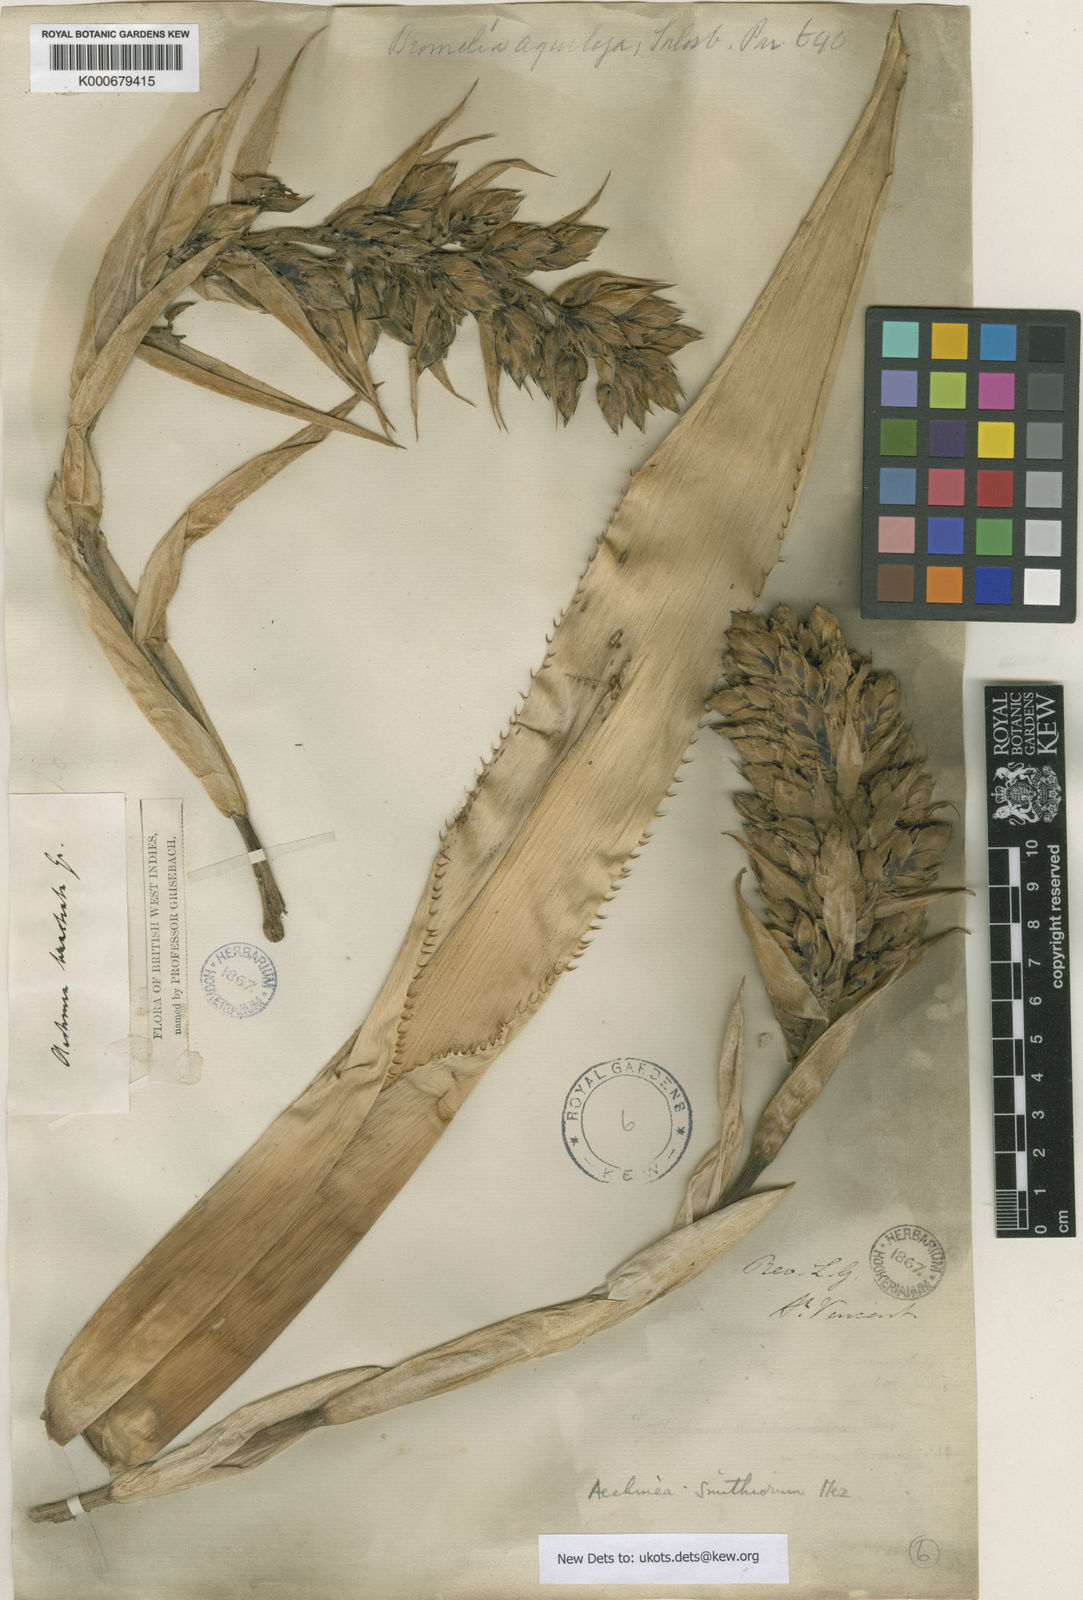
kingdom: Plantae
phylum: Tracheophyta
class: Liliopsida
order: Poales
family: Bromeliaceae
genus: Aechmea
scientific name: Aechmea smithiorum
